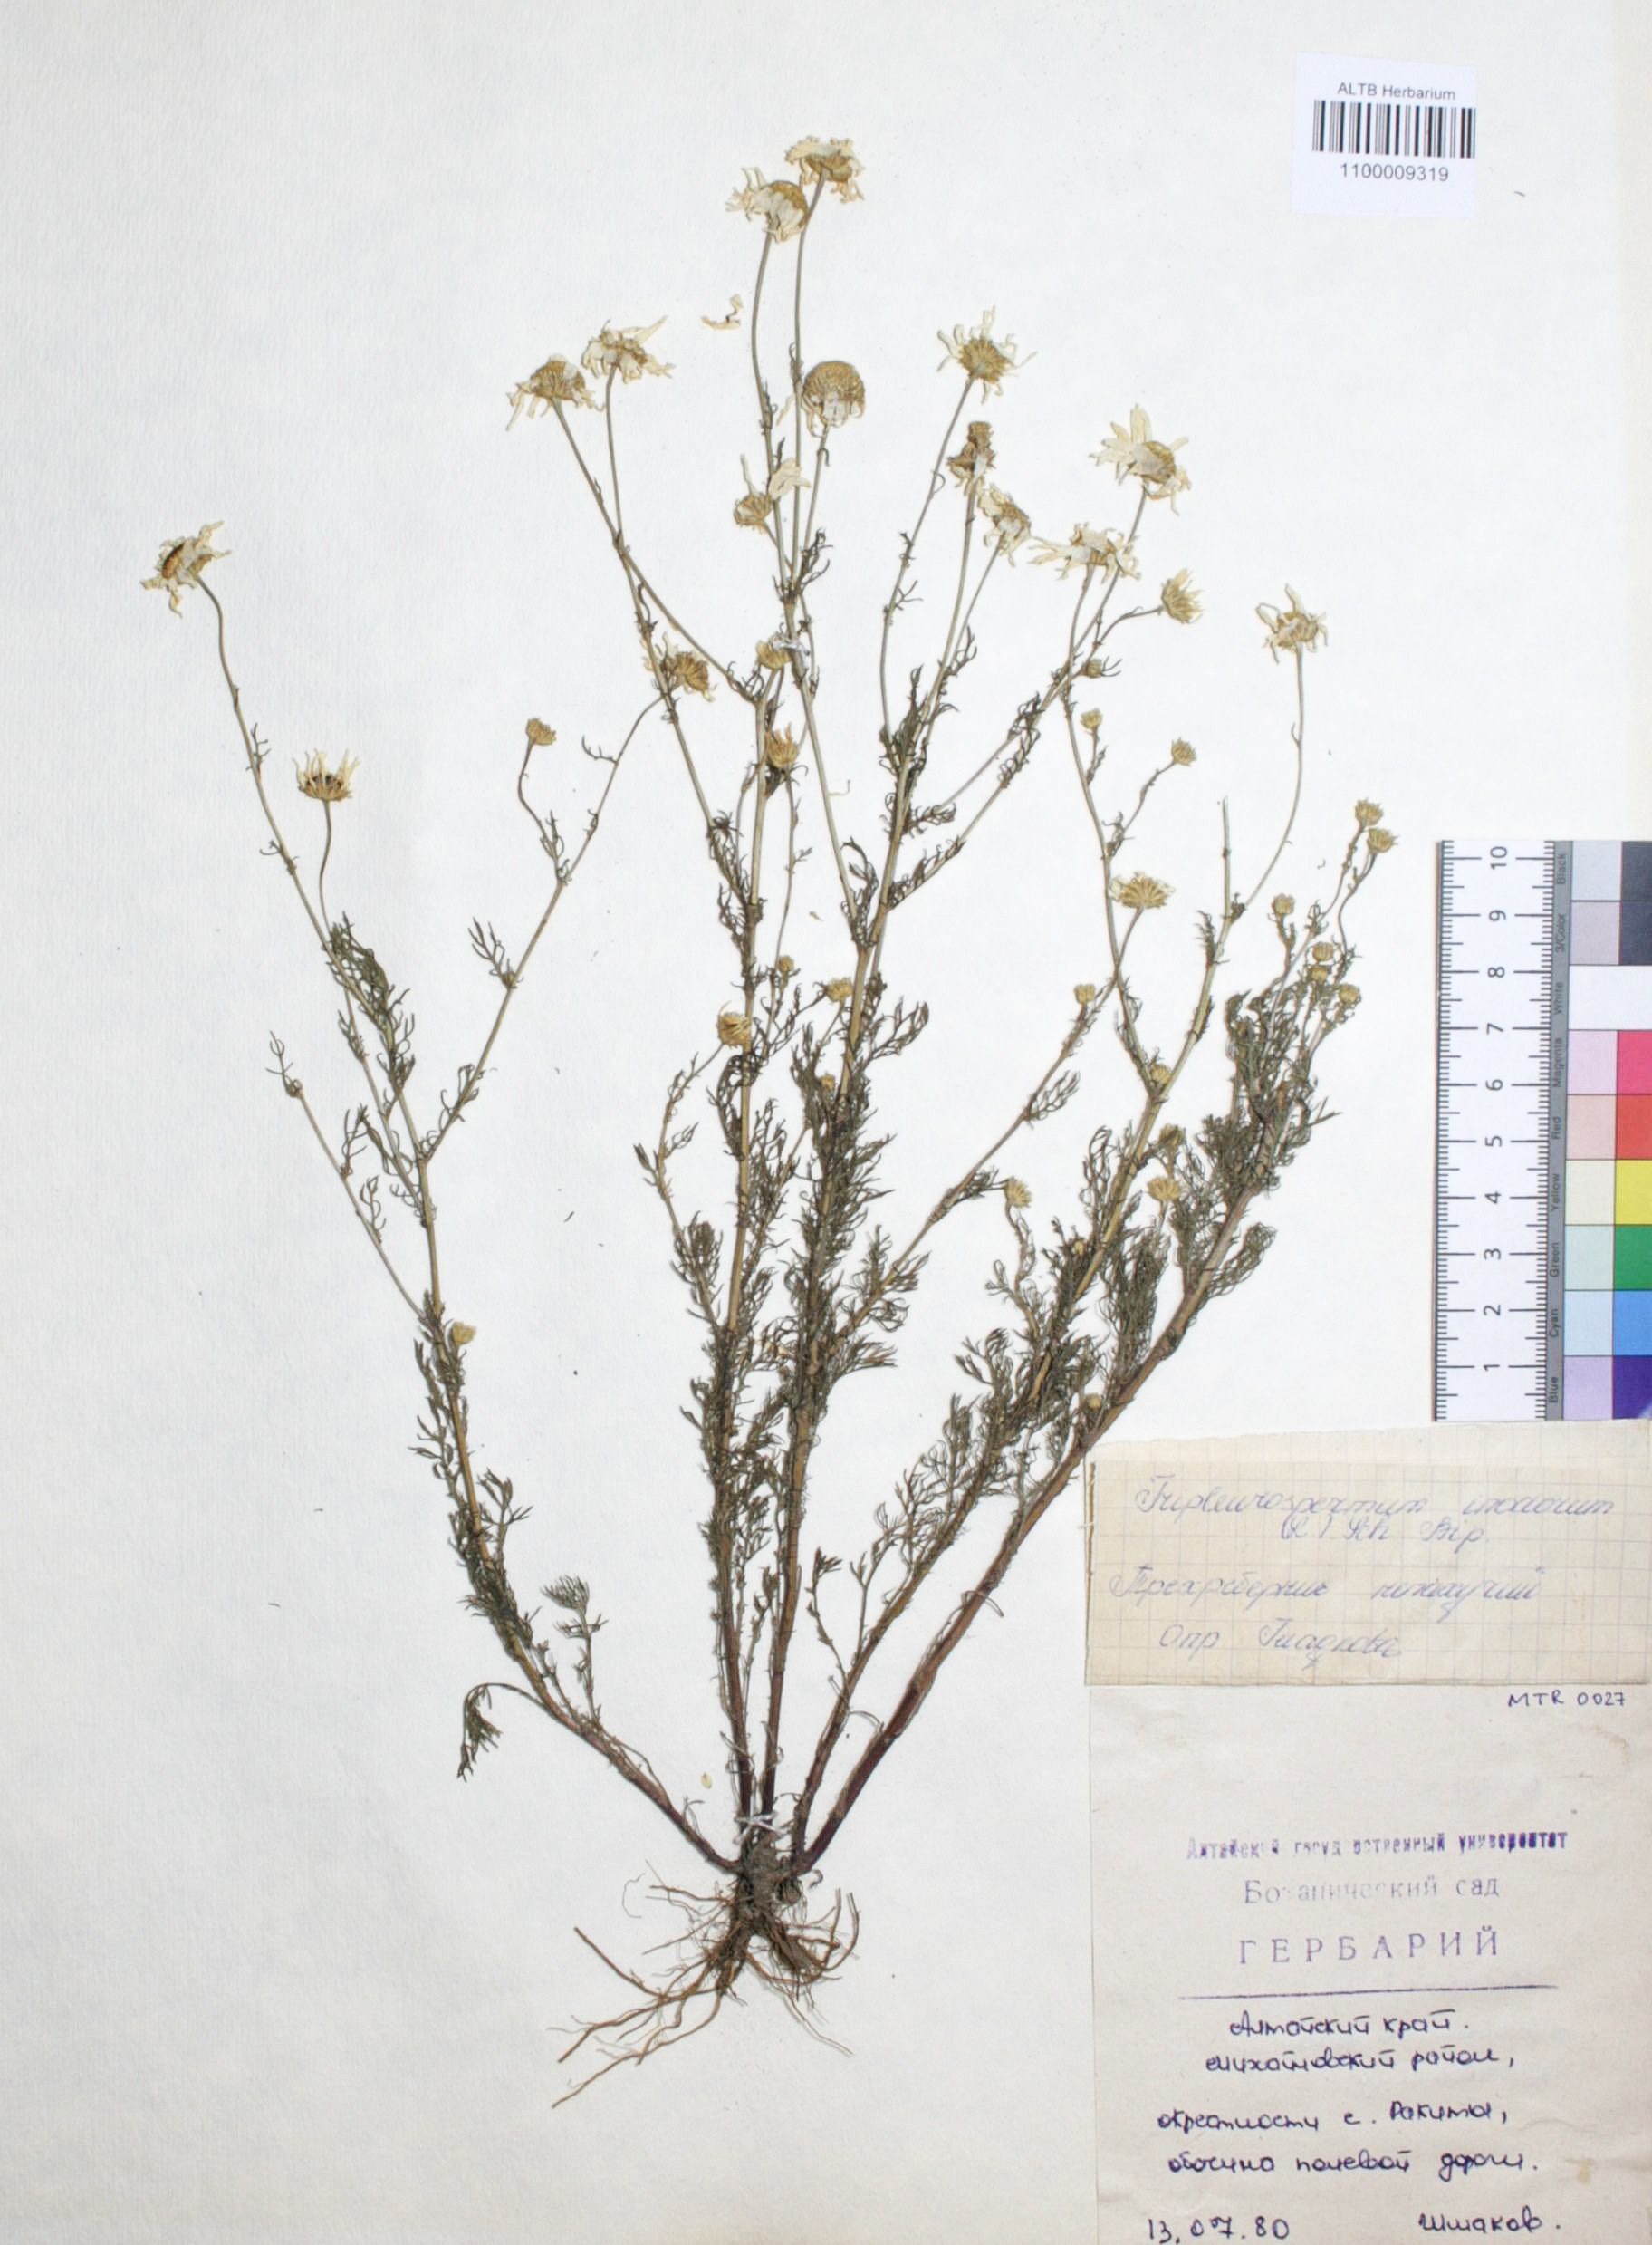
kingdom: Plantae
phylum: Tracheophyta
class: Magnoliopsida
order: Asterales
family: Asteraceae
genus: Tripleurospermum
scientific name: Tripleurospermum inodorum
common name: Scentless mayweed
